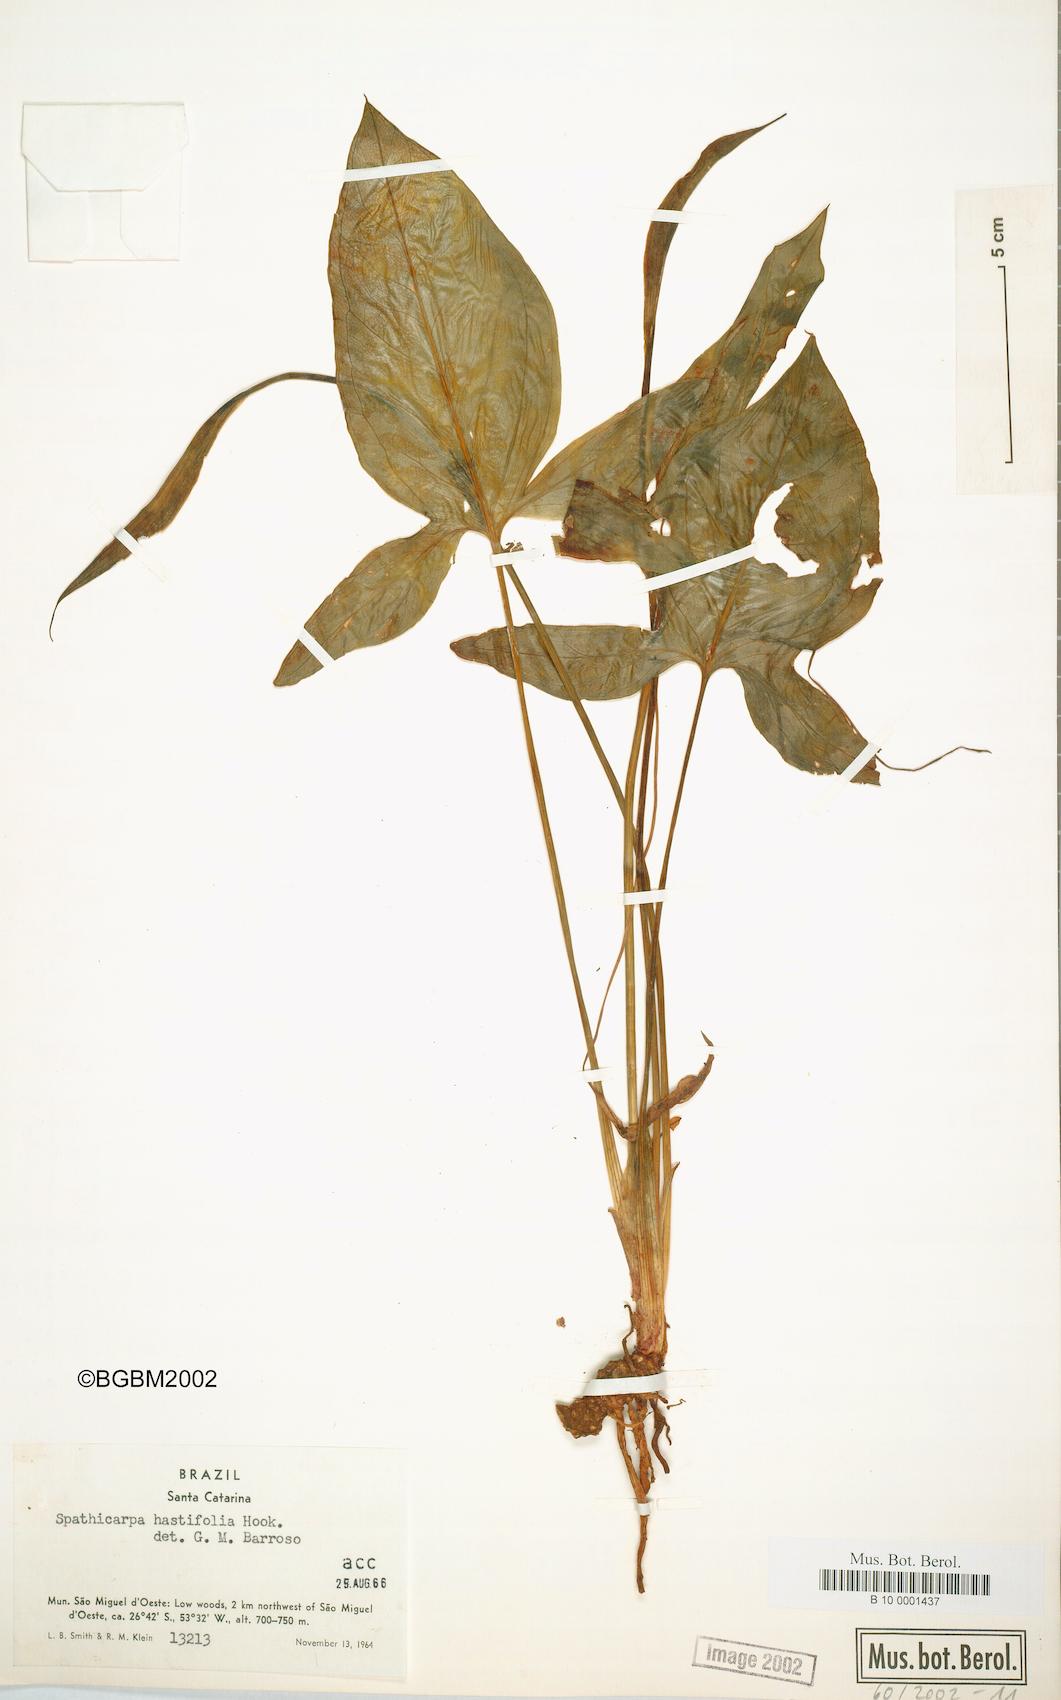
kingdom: Plantae
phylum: Tracheophyta
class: Liliopsida
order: Alismatales
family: Araceae
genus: Spathicarpa
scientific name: Spathicarpa hastifolia
